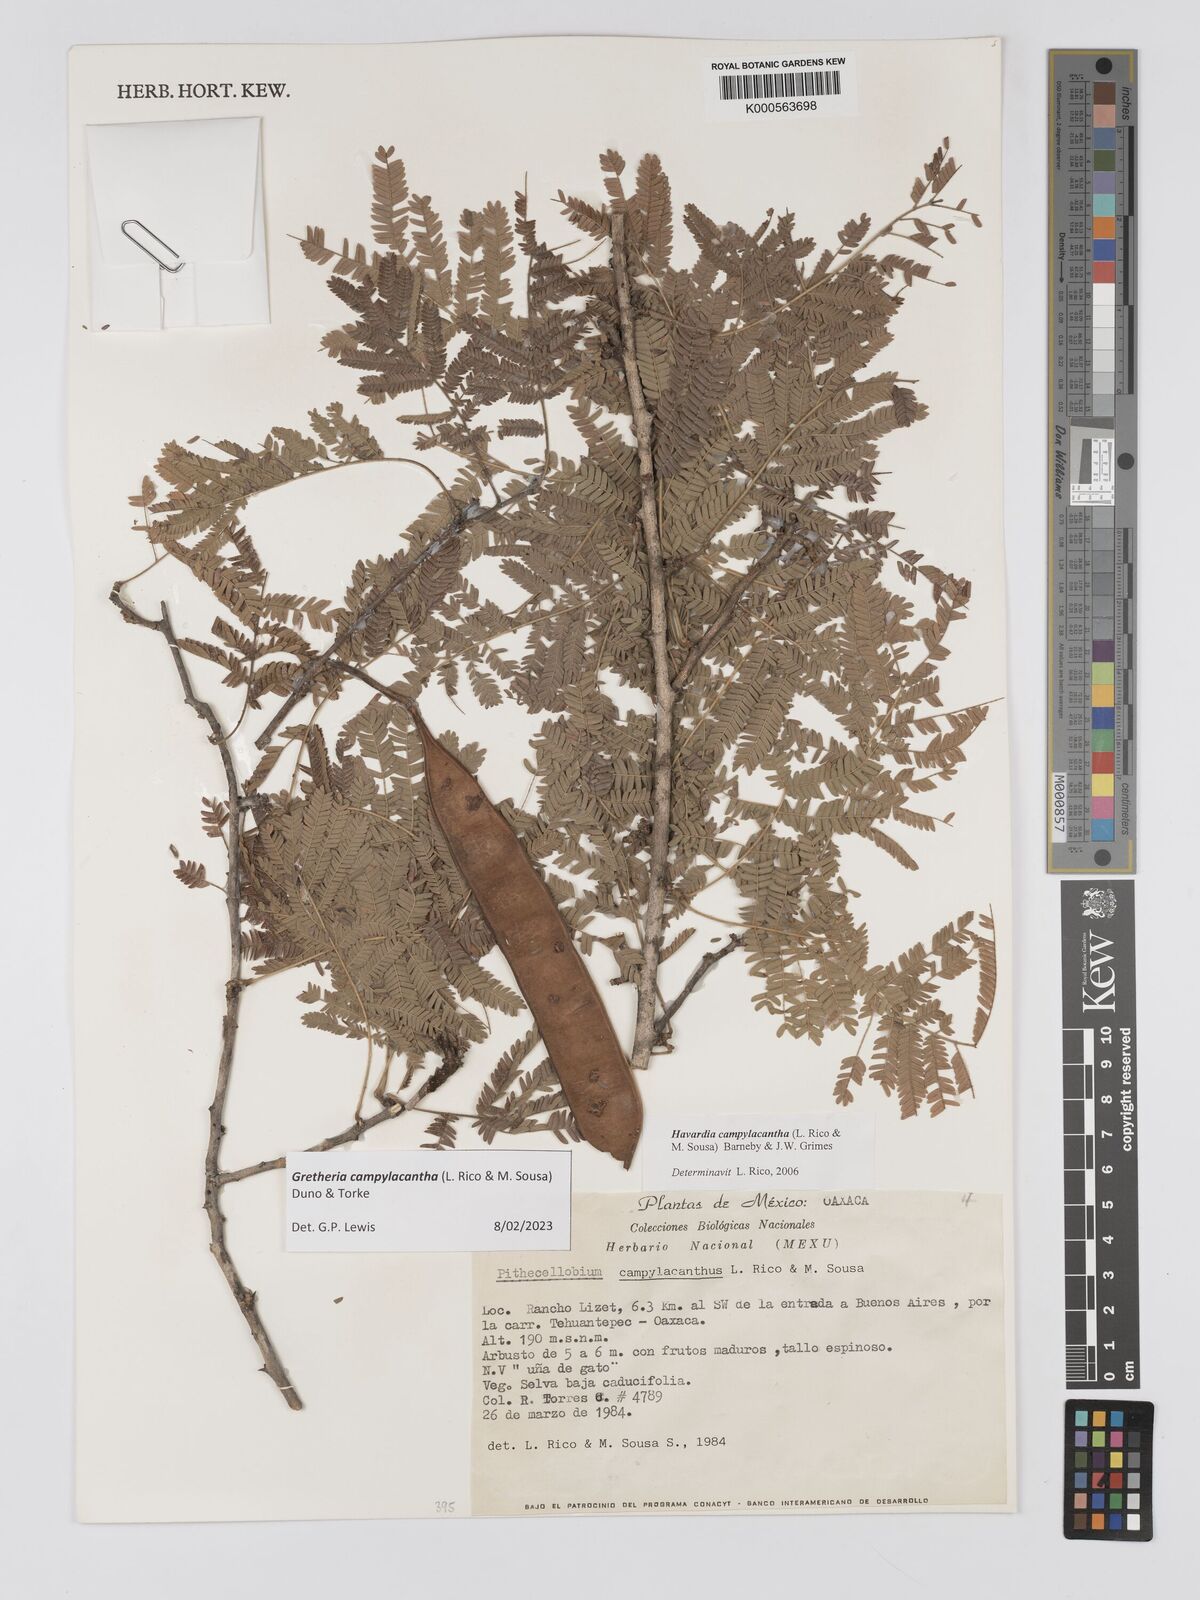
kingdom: Plantae
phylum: Tracheophyta
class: Magnoliopsida
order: Fabales
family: Fabaceae
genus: Havardia
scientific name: Havardia campylacantha
